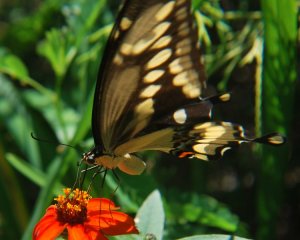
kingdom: Animalia
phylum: Arthropoda
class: Insecta
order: Lepidoptera
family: Papilionidae
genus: Papilio
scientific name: Papilio cresphontes
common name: Eastern Giant Swallowtail
